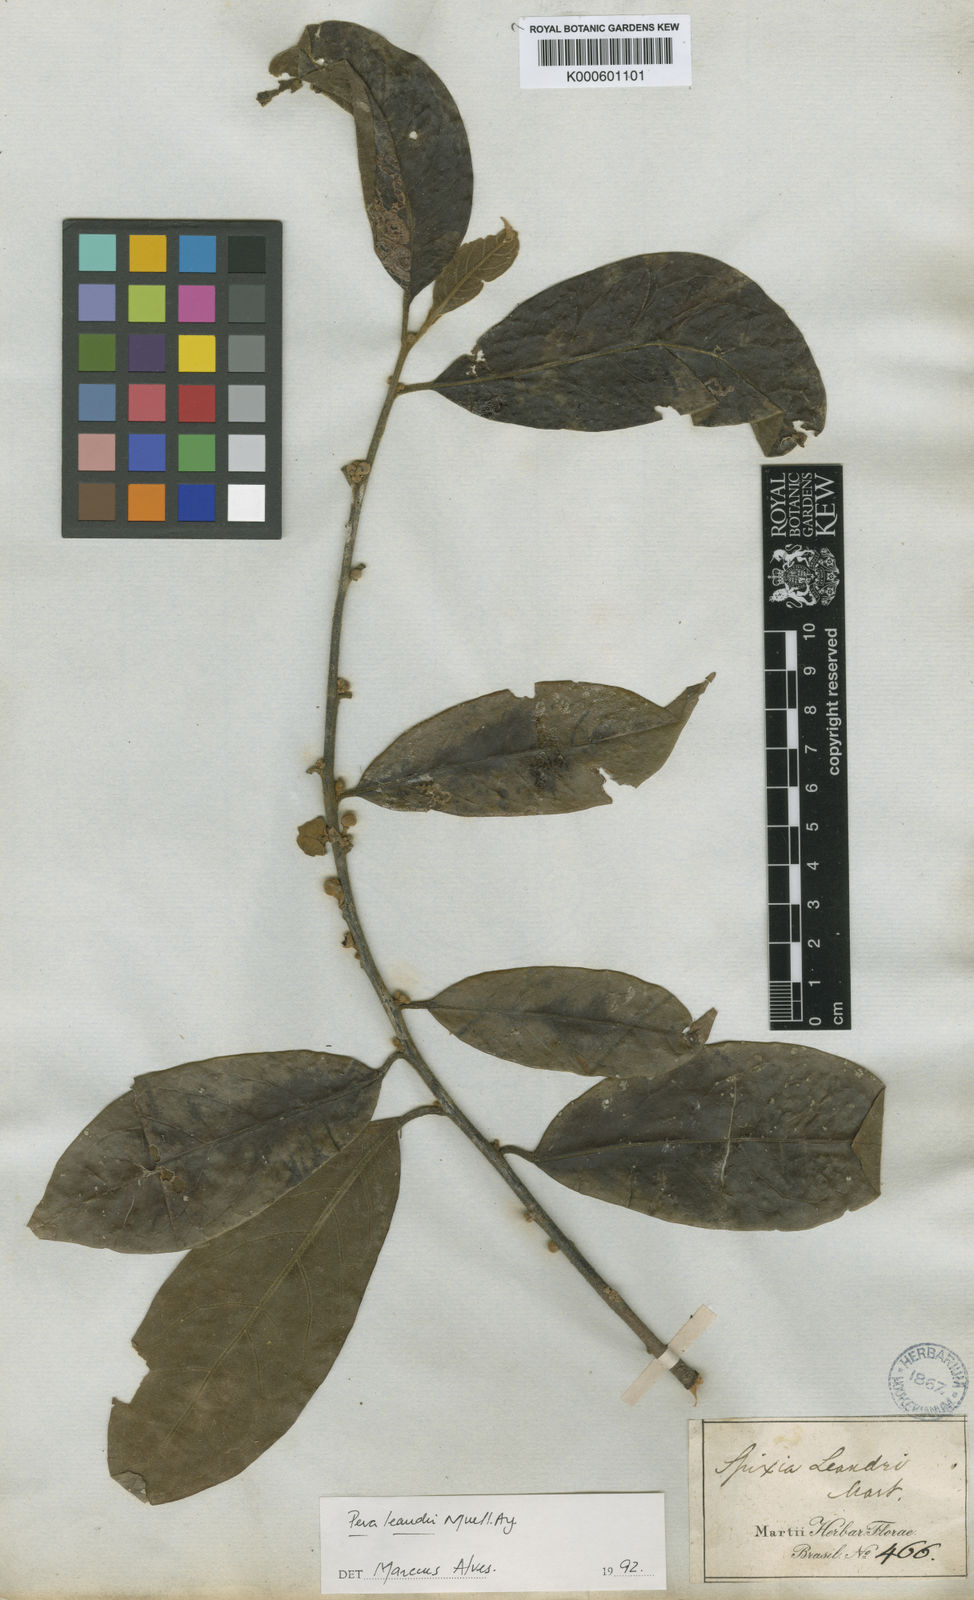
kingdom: Plantae
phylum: Tracheophyta
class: Magnoliopsida
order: Malpighiales
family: Peraceae
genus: Pera
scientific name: Pera
